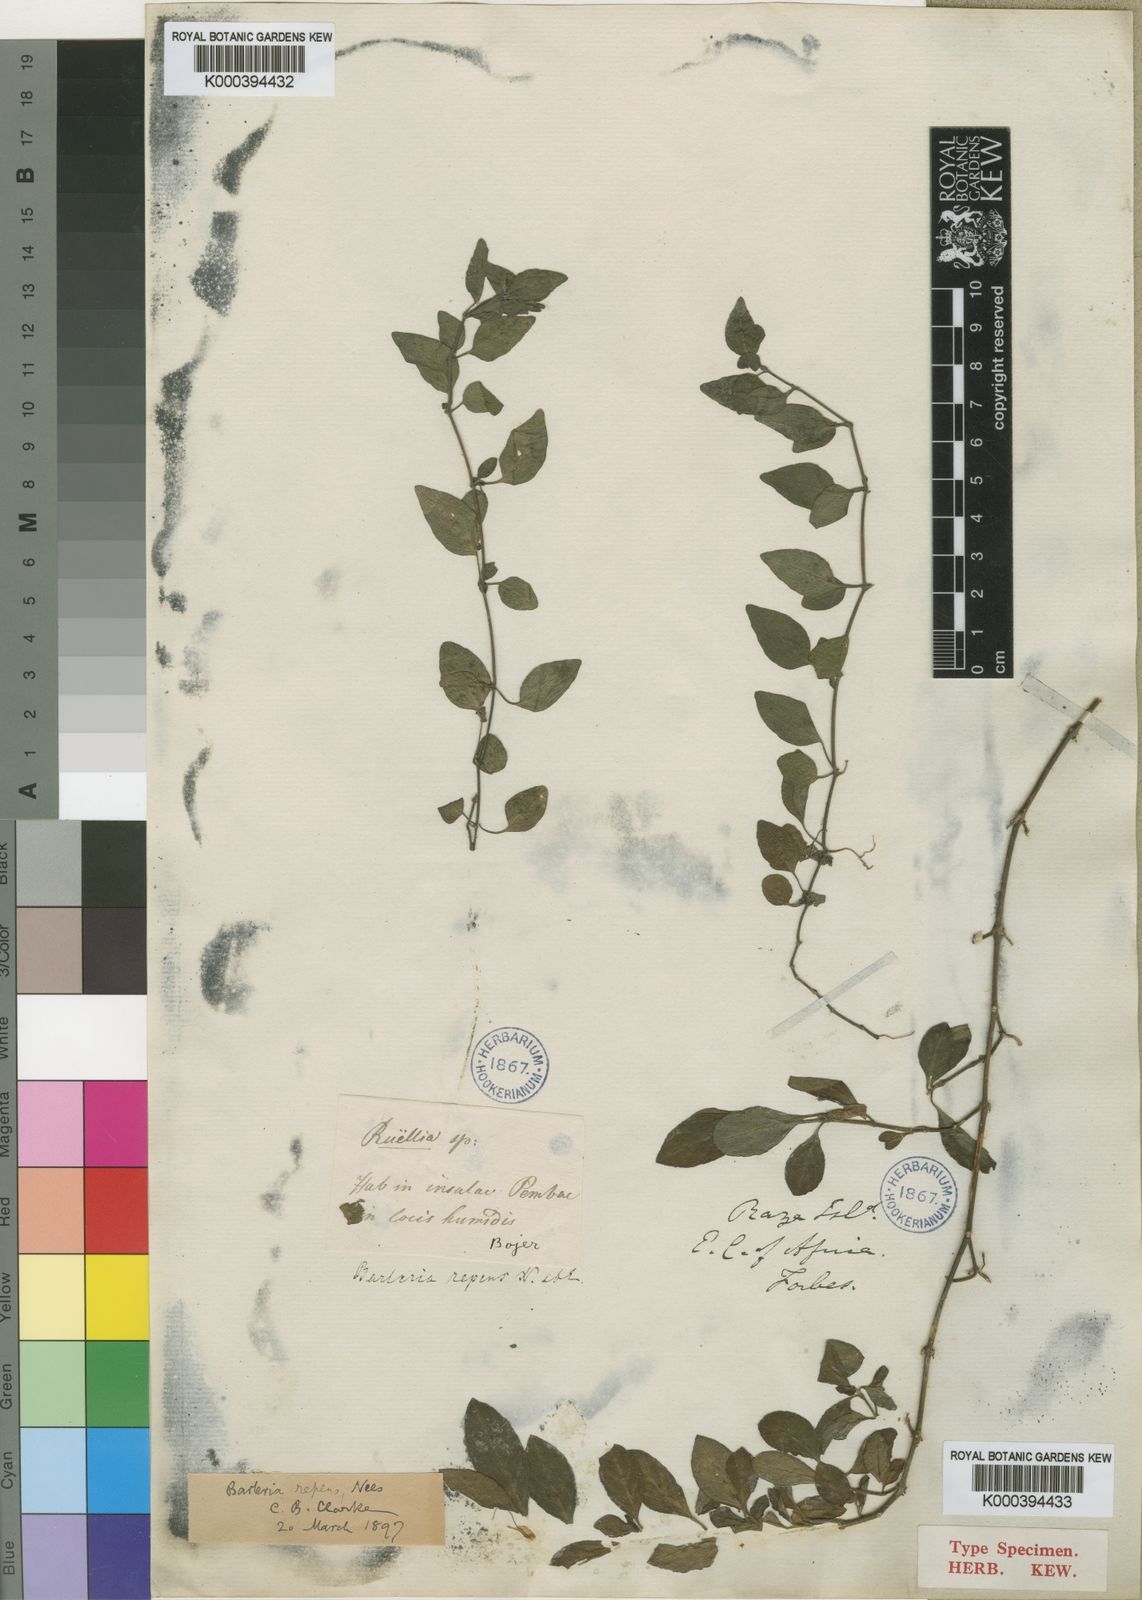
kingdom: Plantae
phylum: Tracheophyta
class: Magnoliopsida
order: Lamiales
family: Acanthaceae
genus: Barleria
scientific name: Barleria repens
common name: Pink-ruellia
